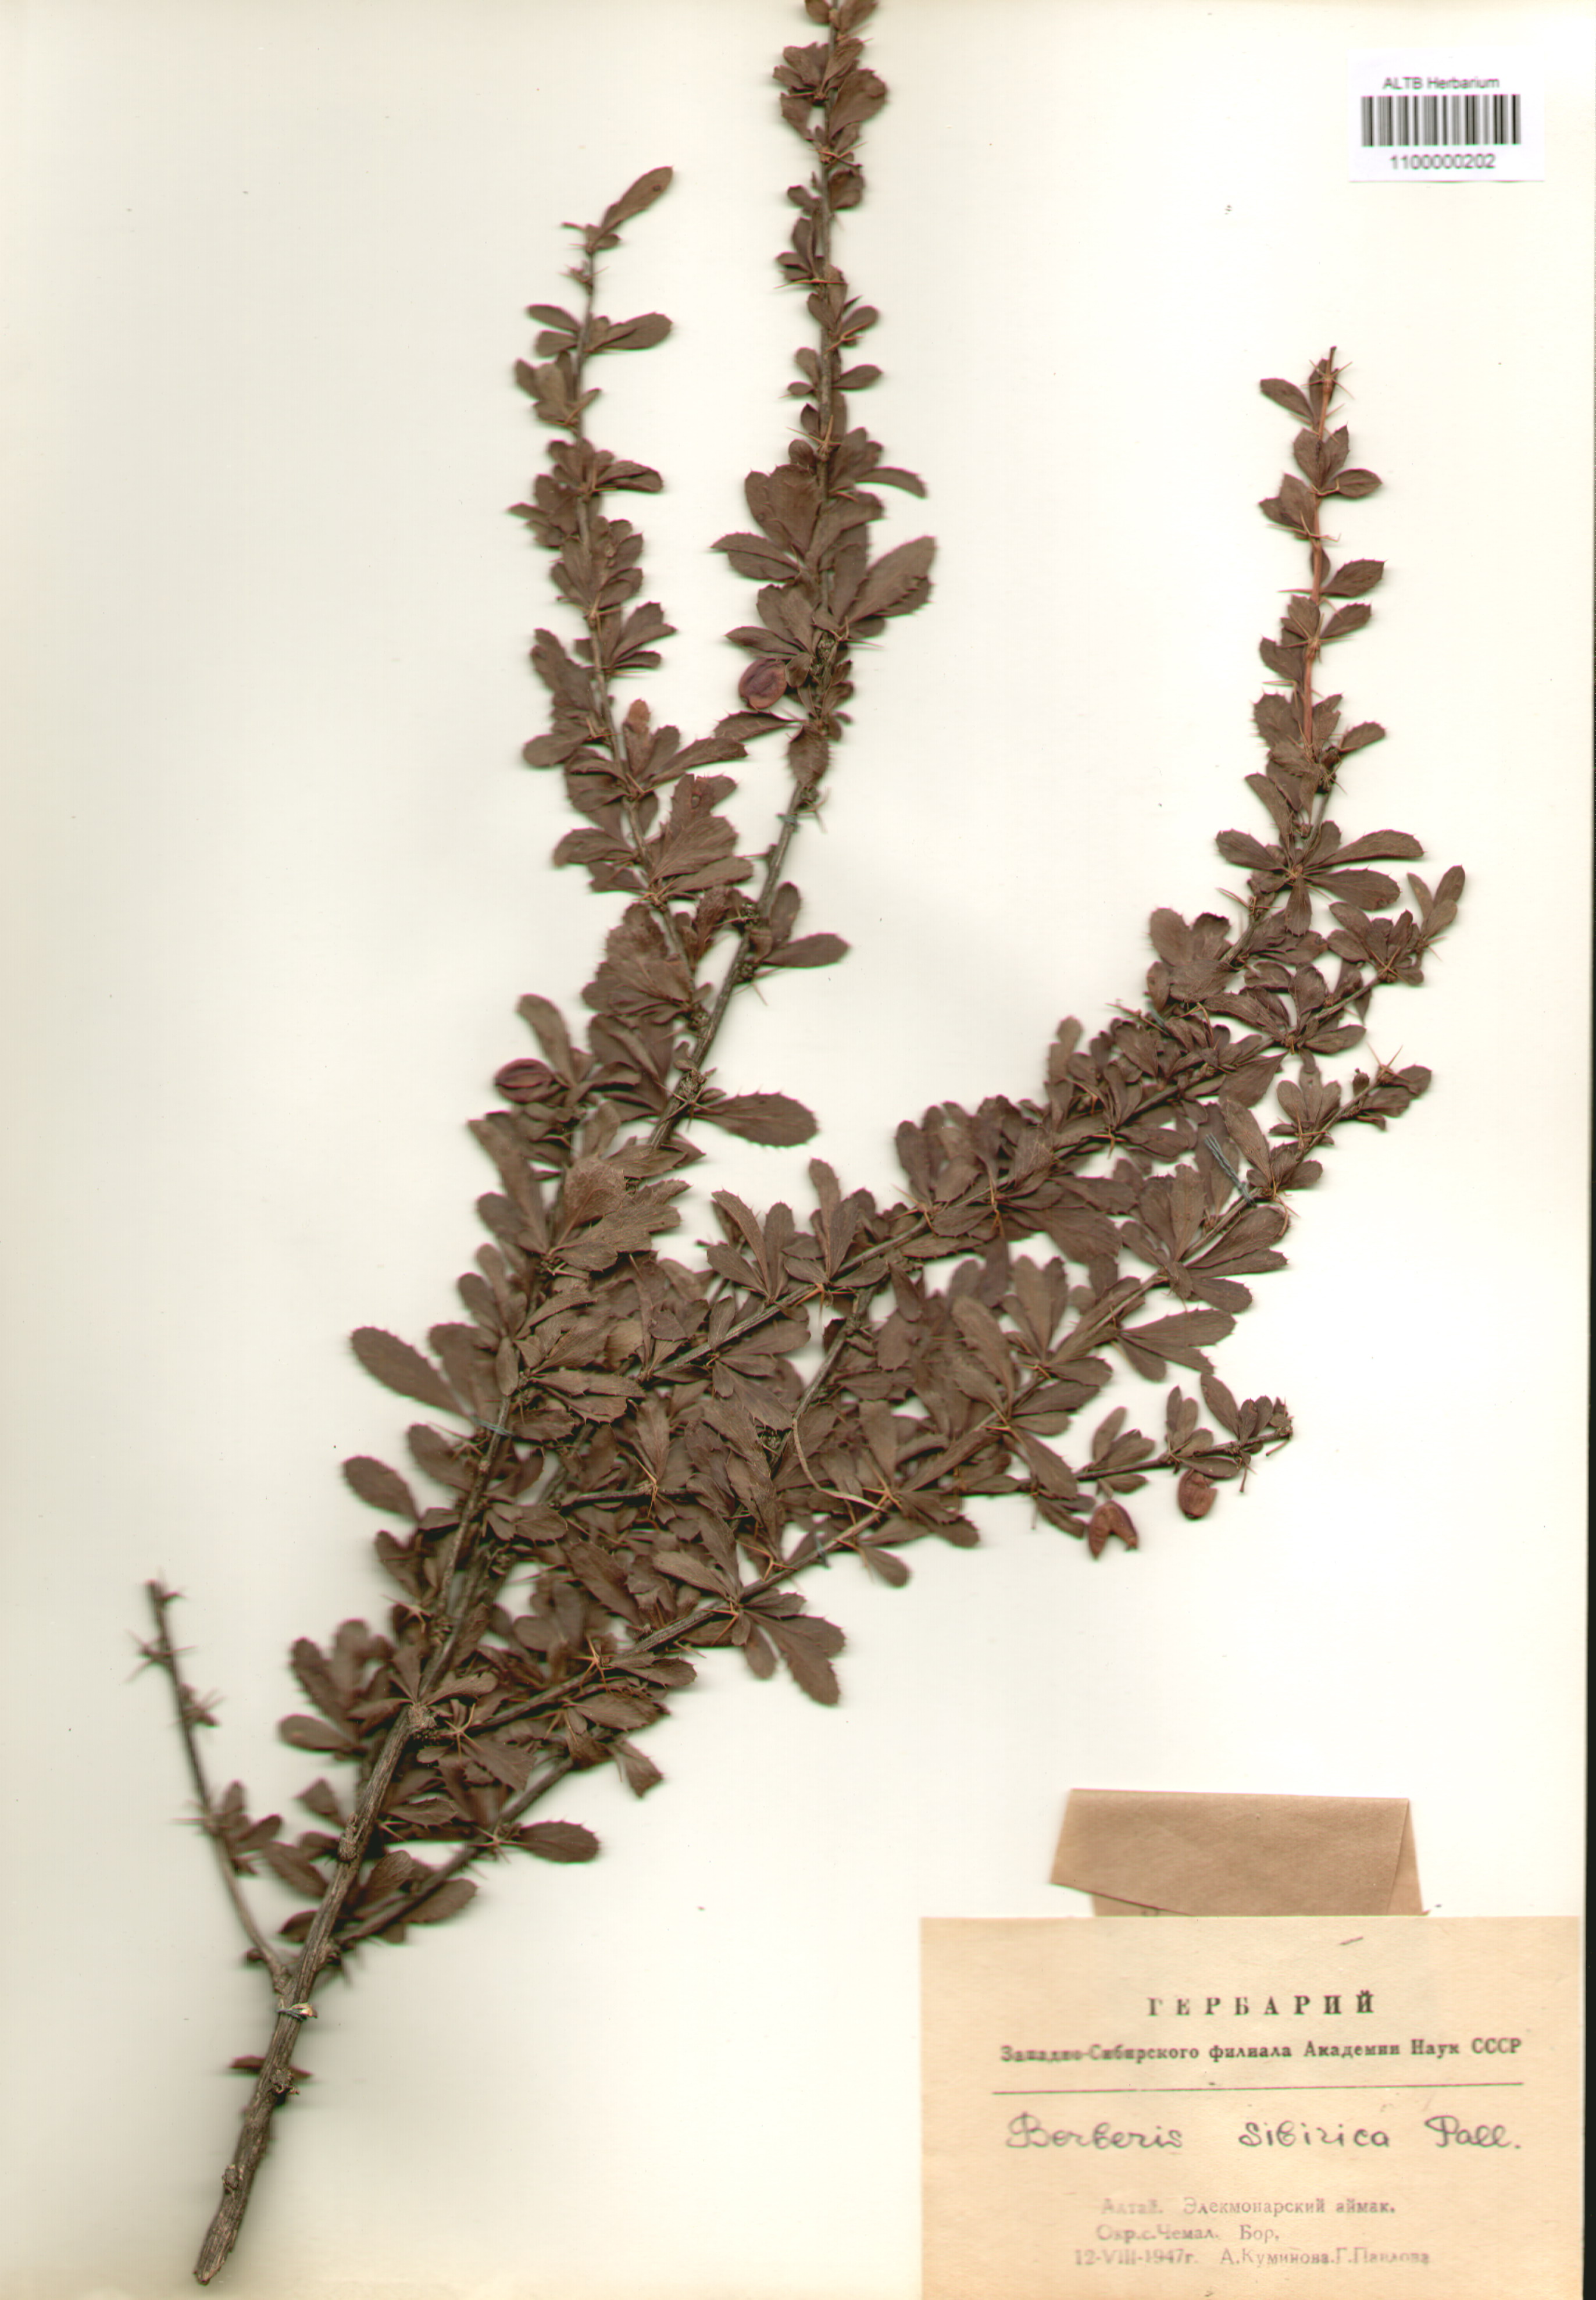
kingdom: Plantae
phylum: Tracheophyta
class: Magnoliopsida
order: Ranunculales
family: Berberidaceae
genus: Berberis
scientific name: Berberis sibirica
